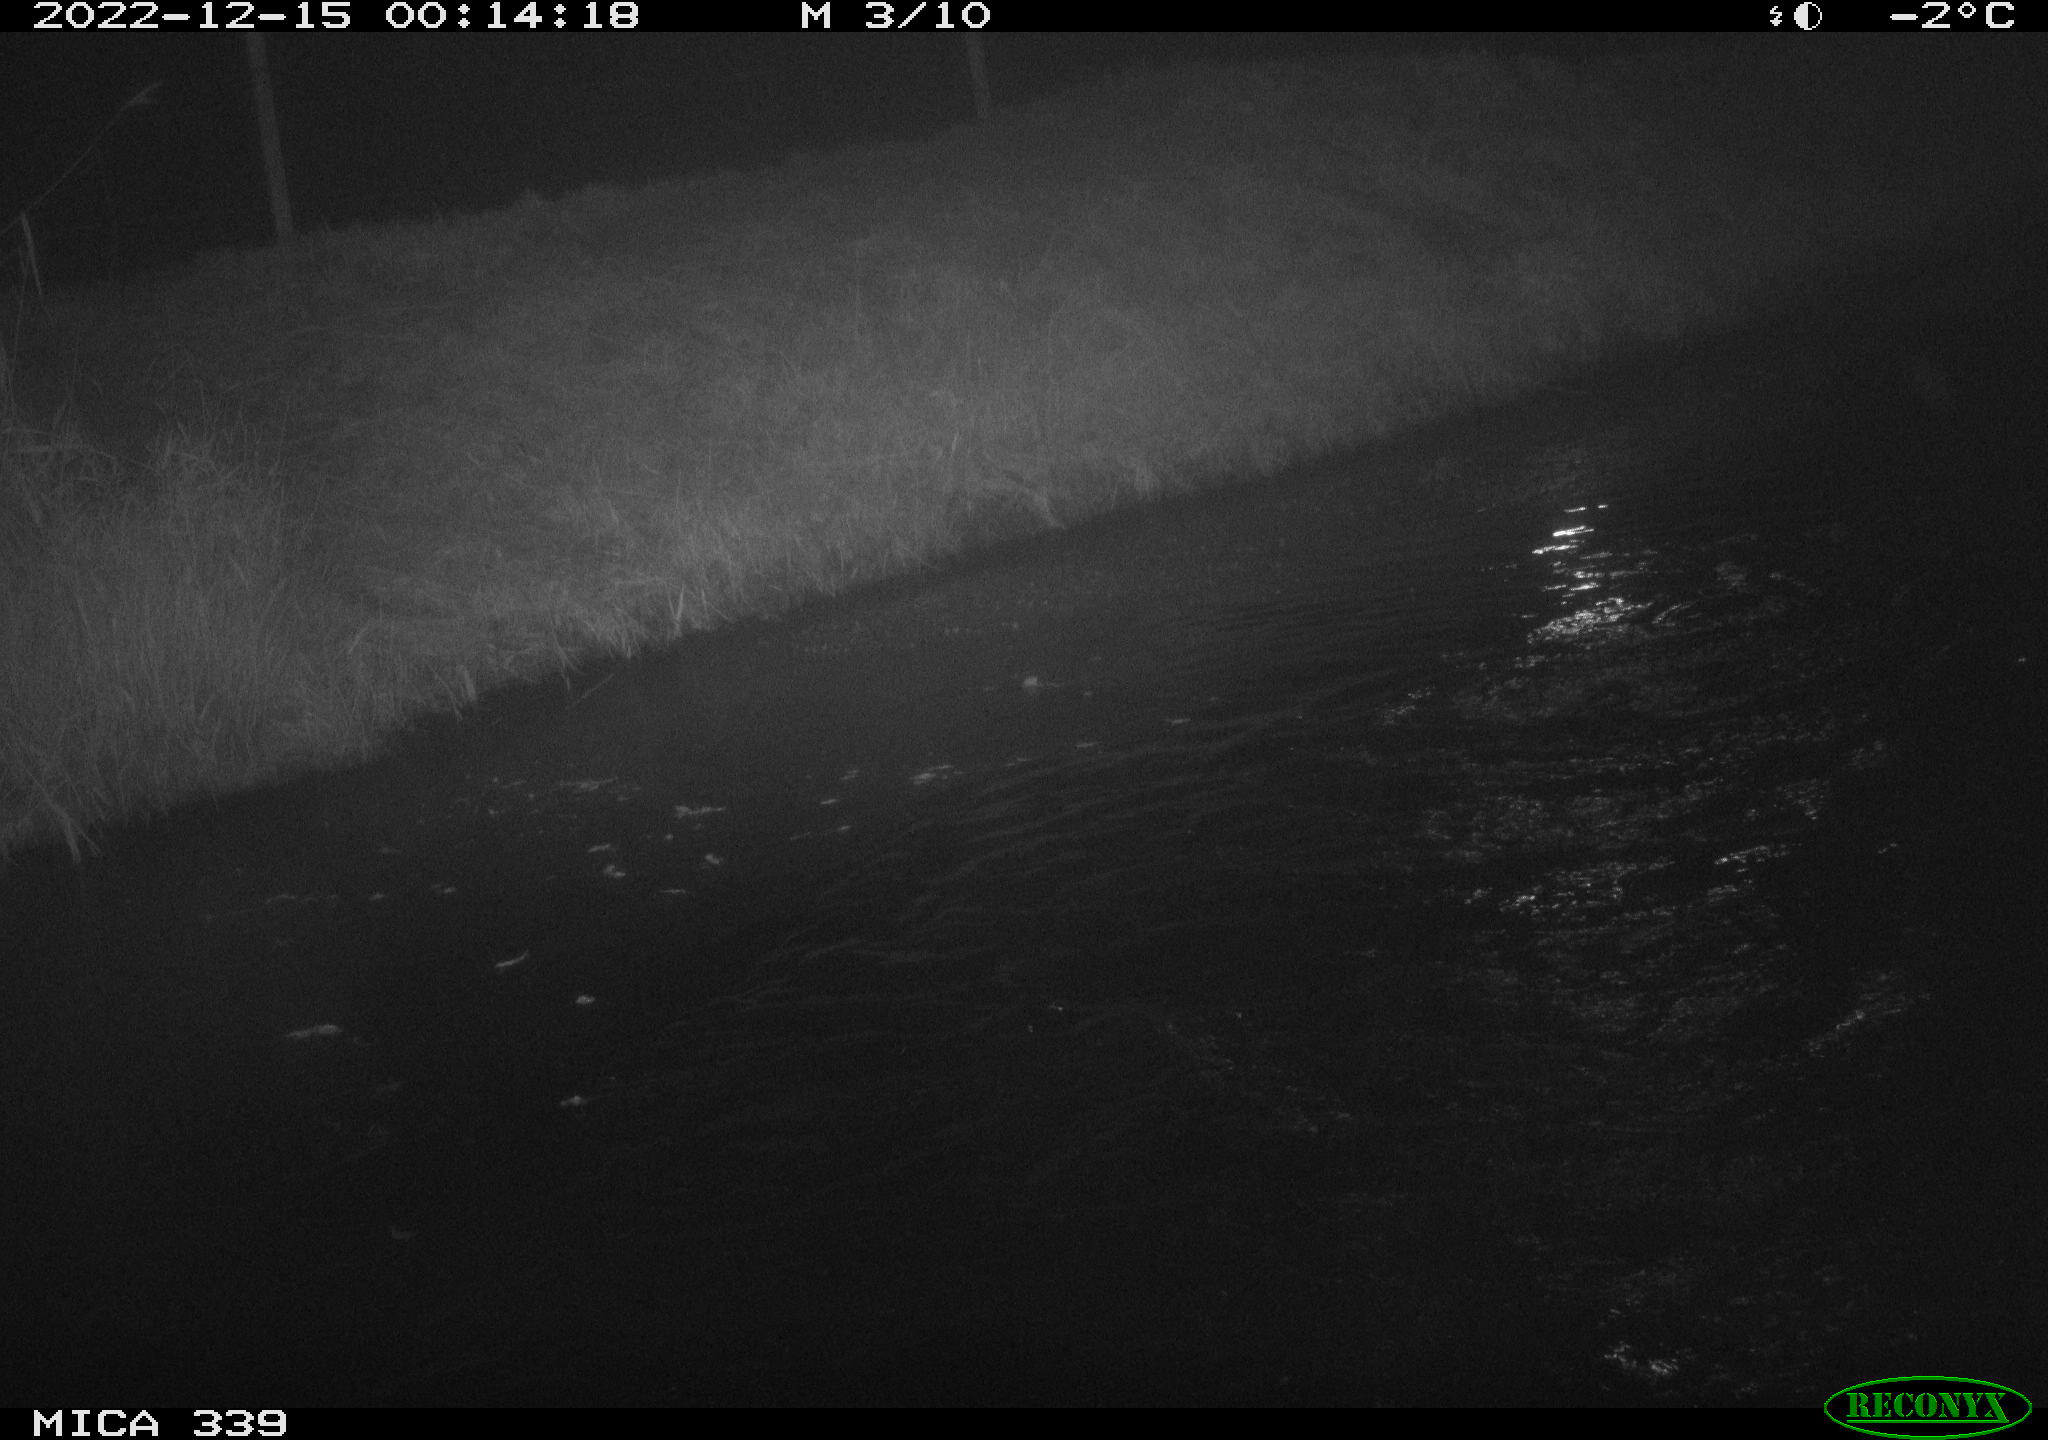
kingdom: Animalia
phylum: Chordata
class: Aves
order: Anseriformes
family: Anatidae
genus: Anas
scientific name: Anas
